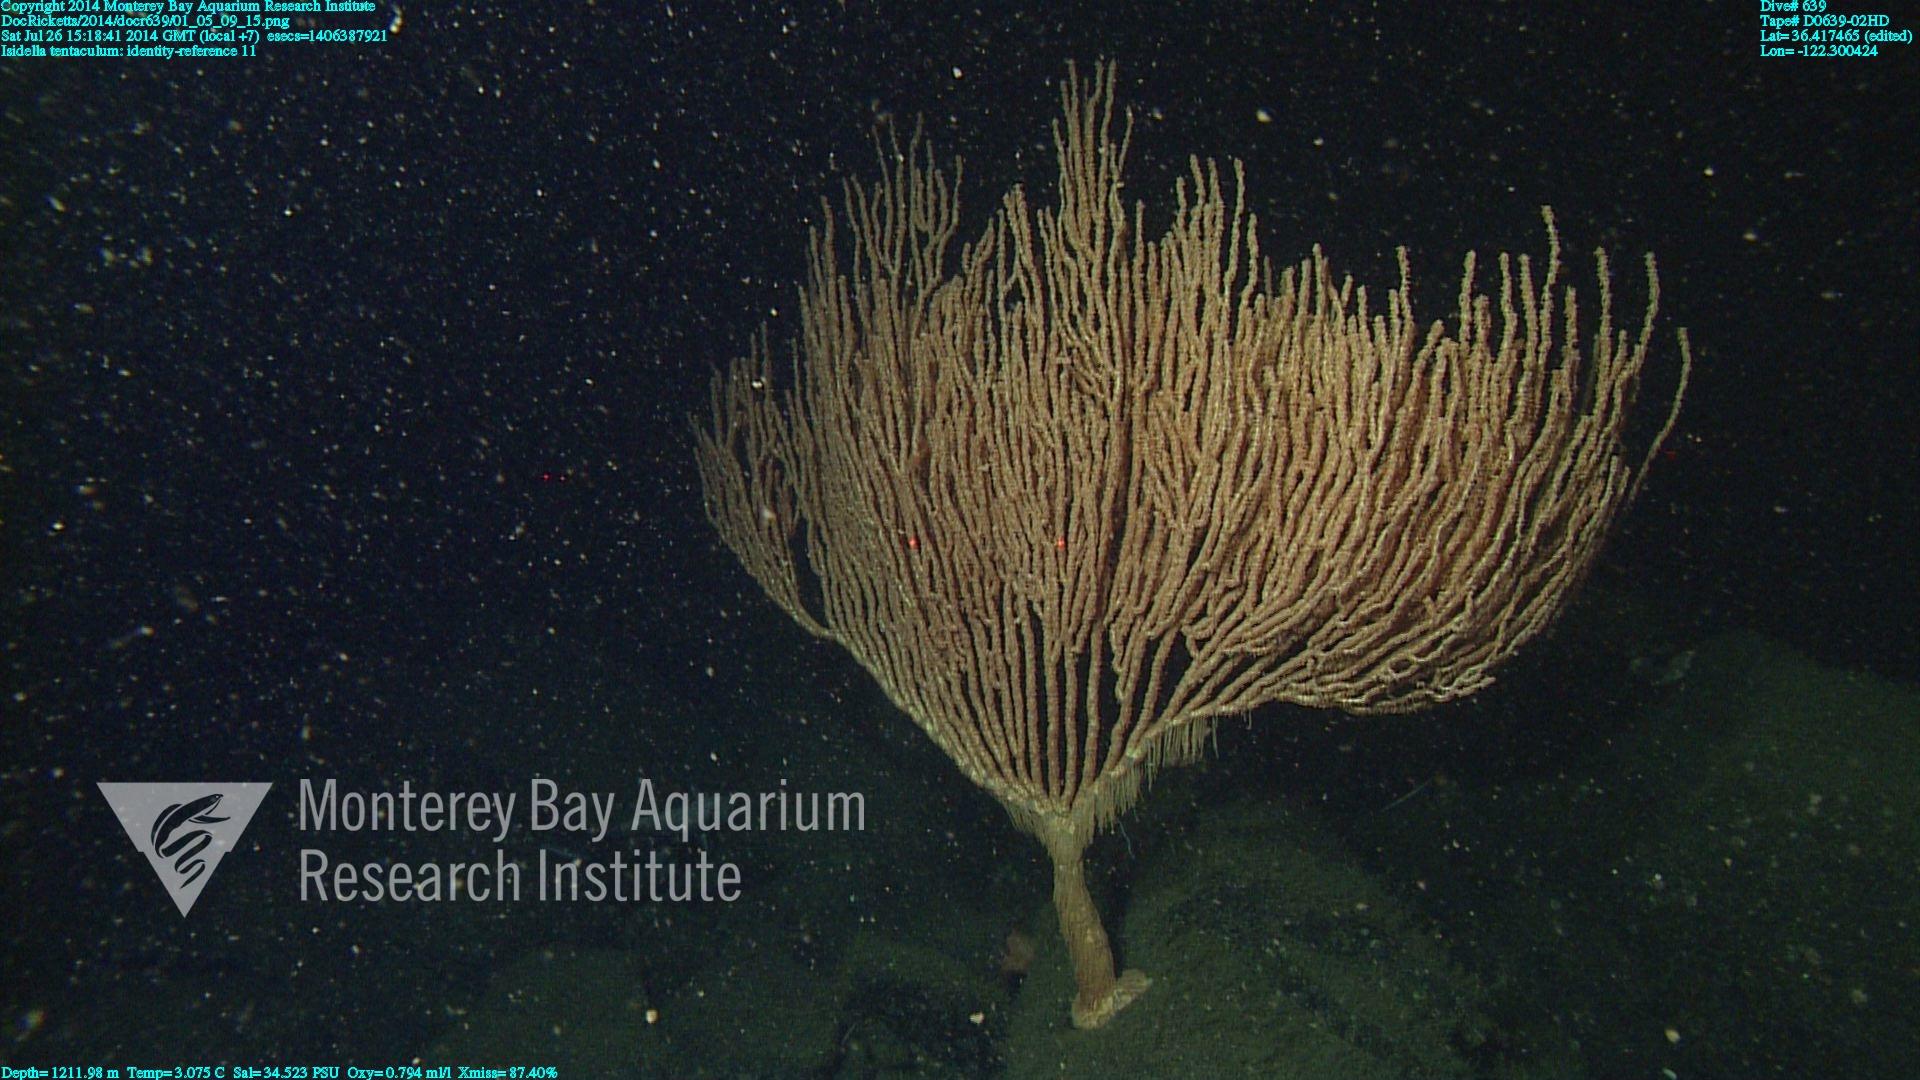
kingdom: Animalia
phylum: Cnidaria
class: Anthozoa
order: Scleralcyonacea
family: Keratoisididae
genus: Isidella
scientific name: Isidella tentaculum
